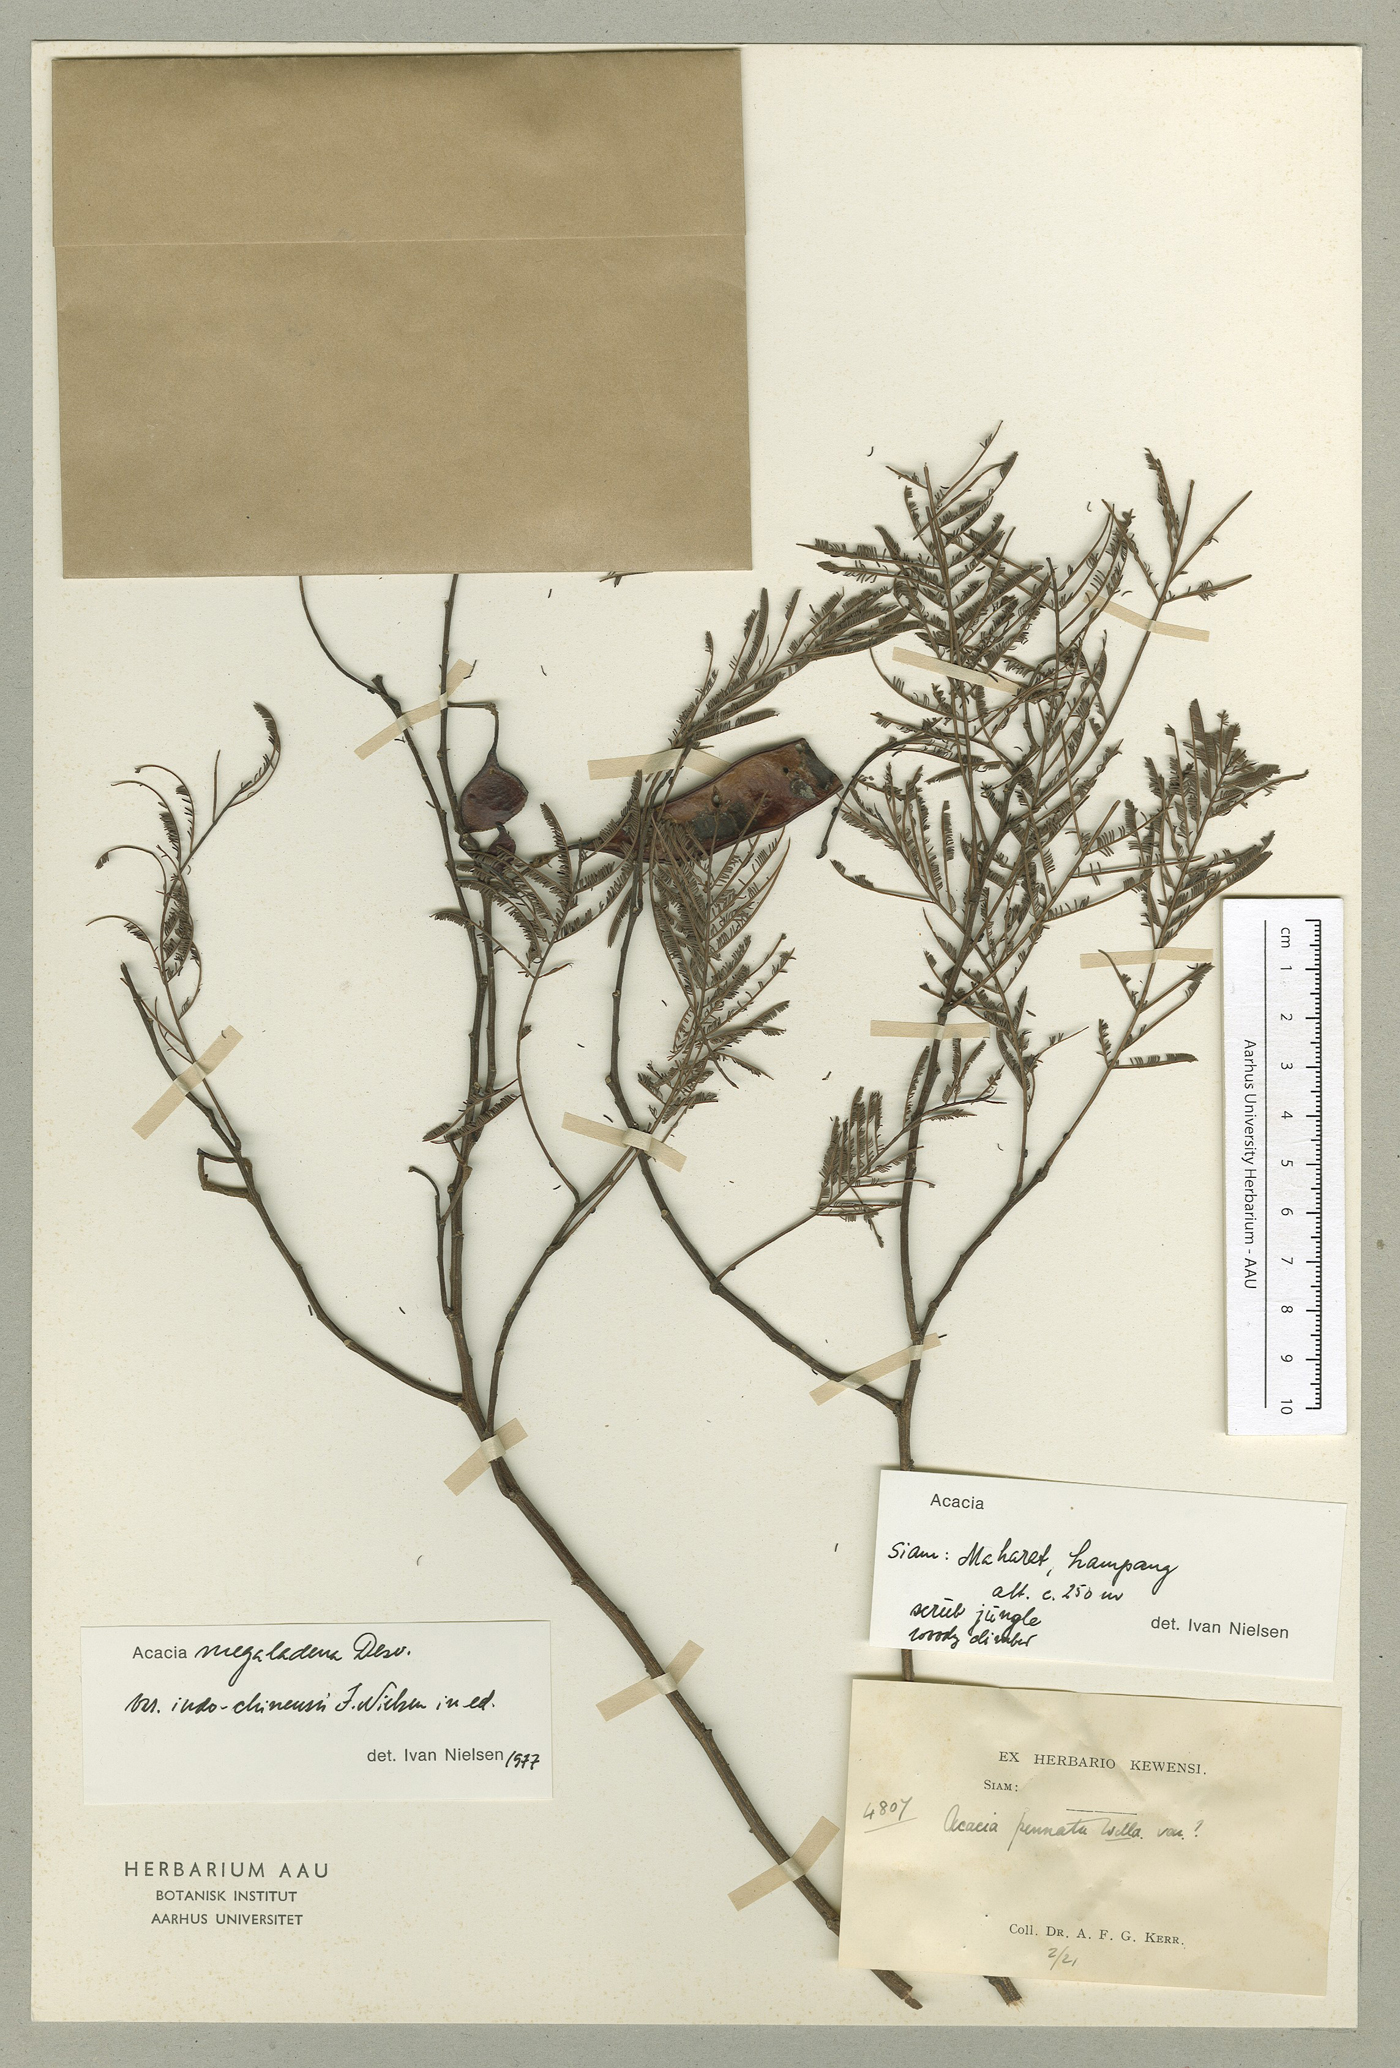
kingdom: Plantae
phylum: Tracheophyta
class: Magnoliopsida
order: Fabales
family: Fabaceae
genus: Senegalia
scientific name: Senegalia megaladena
